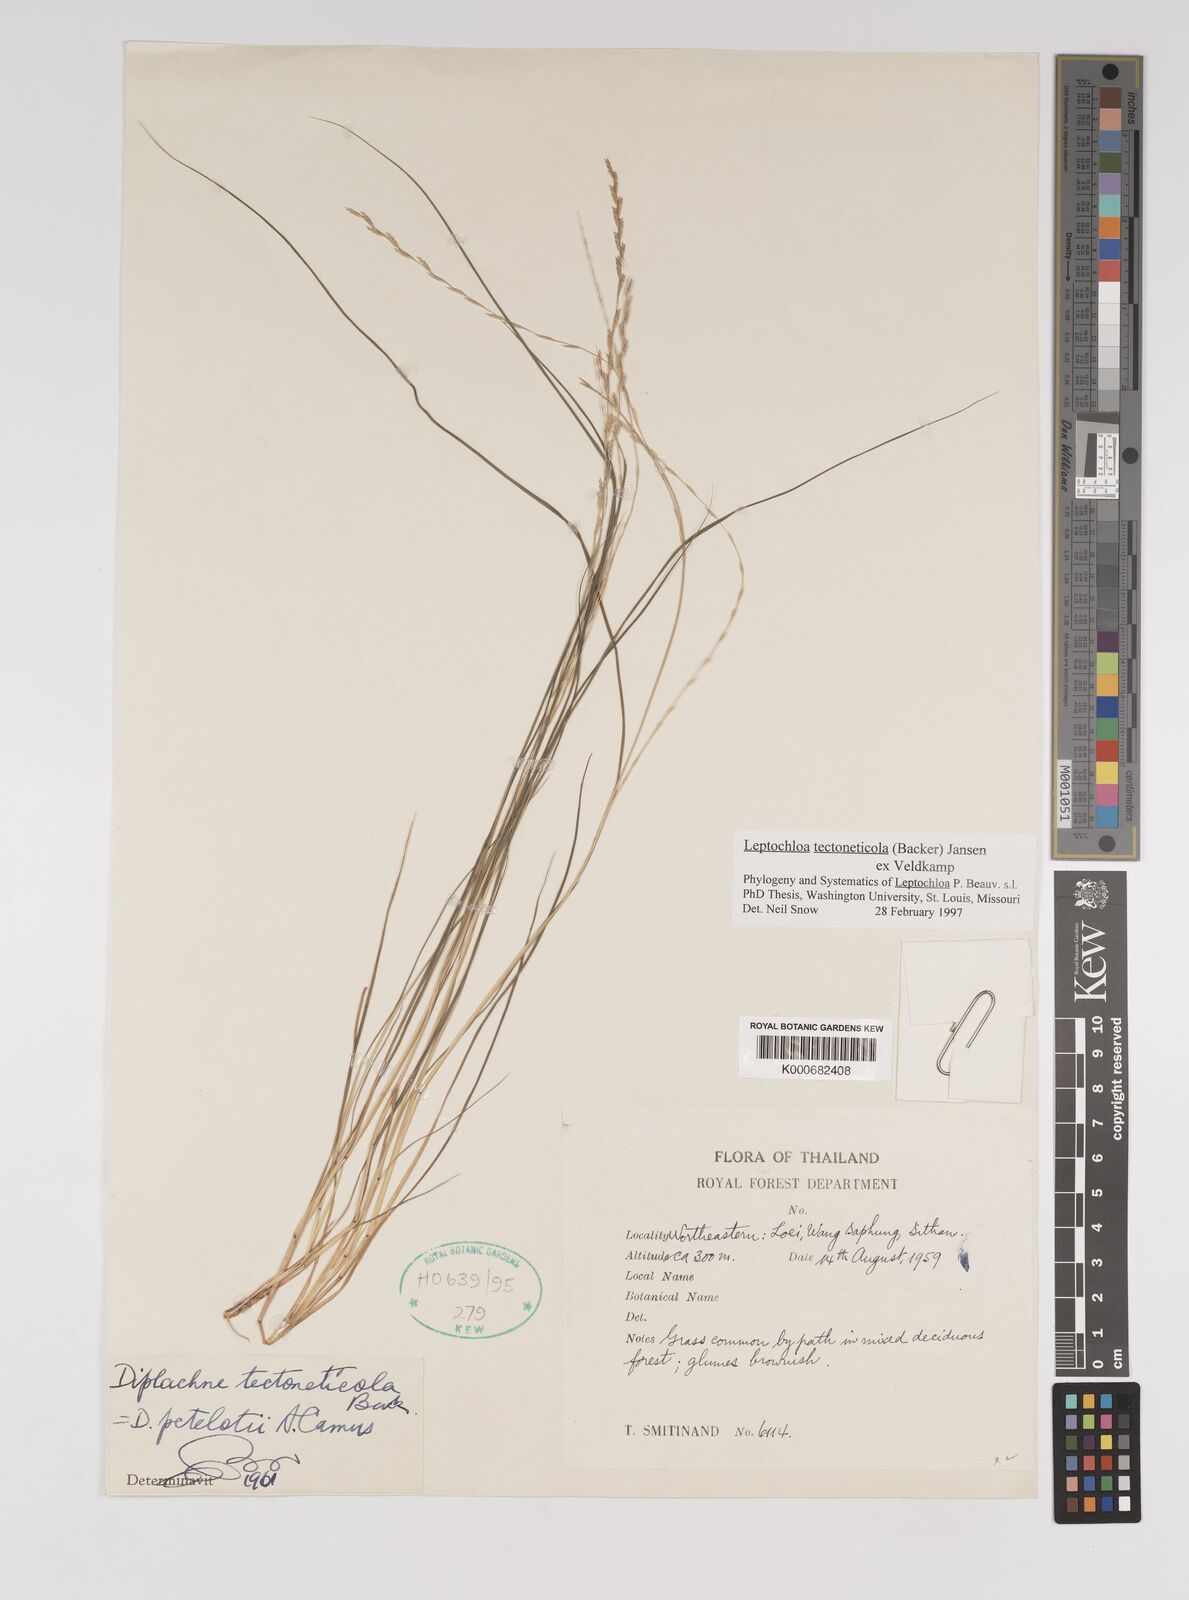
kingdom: Plantae
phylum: Tracheophyta
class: Liliopsida
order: Poales
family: Poaceae
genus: Leptochloa
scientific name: Leptochloa tectoneticola
